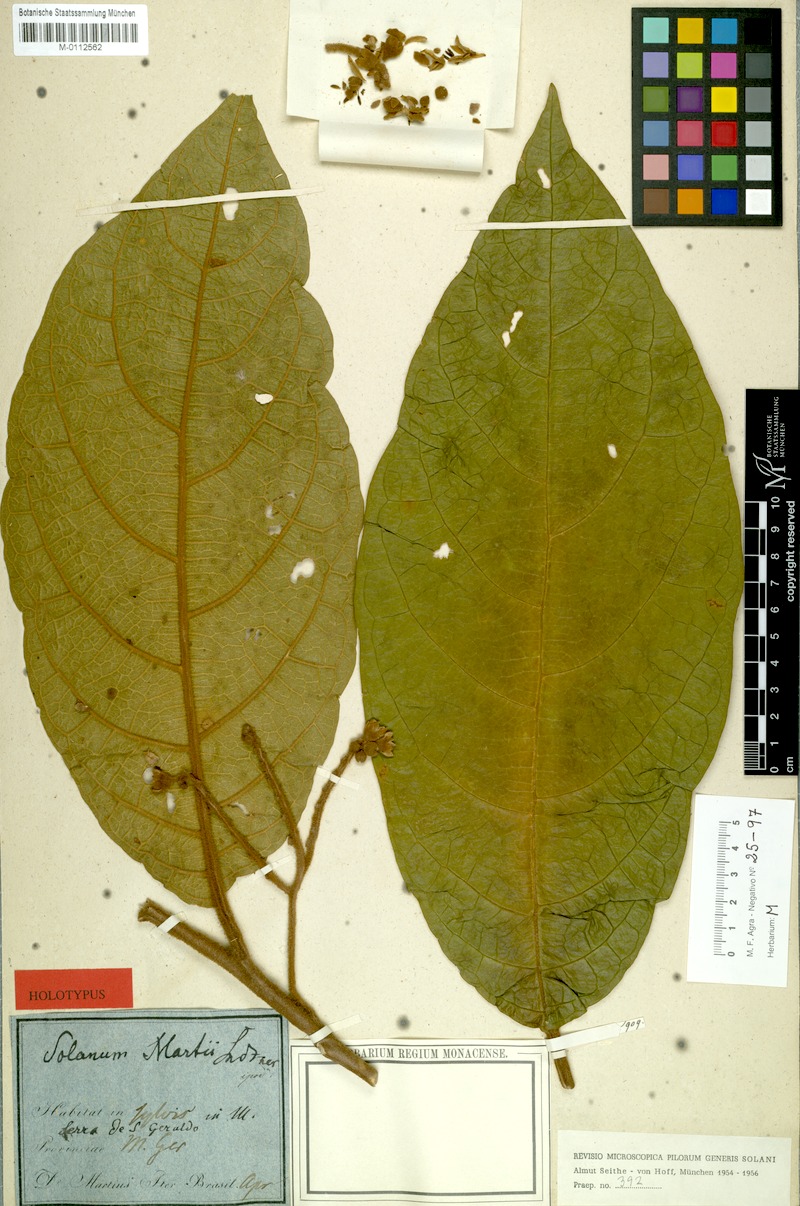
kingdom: Plantae
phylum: Tracheophyta
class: Magnoliopsida
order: Solanales
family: Solanaceae
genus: Solanum
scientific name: Solanum martii
